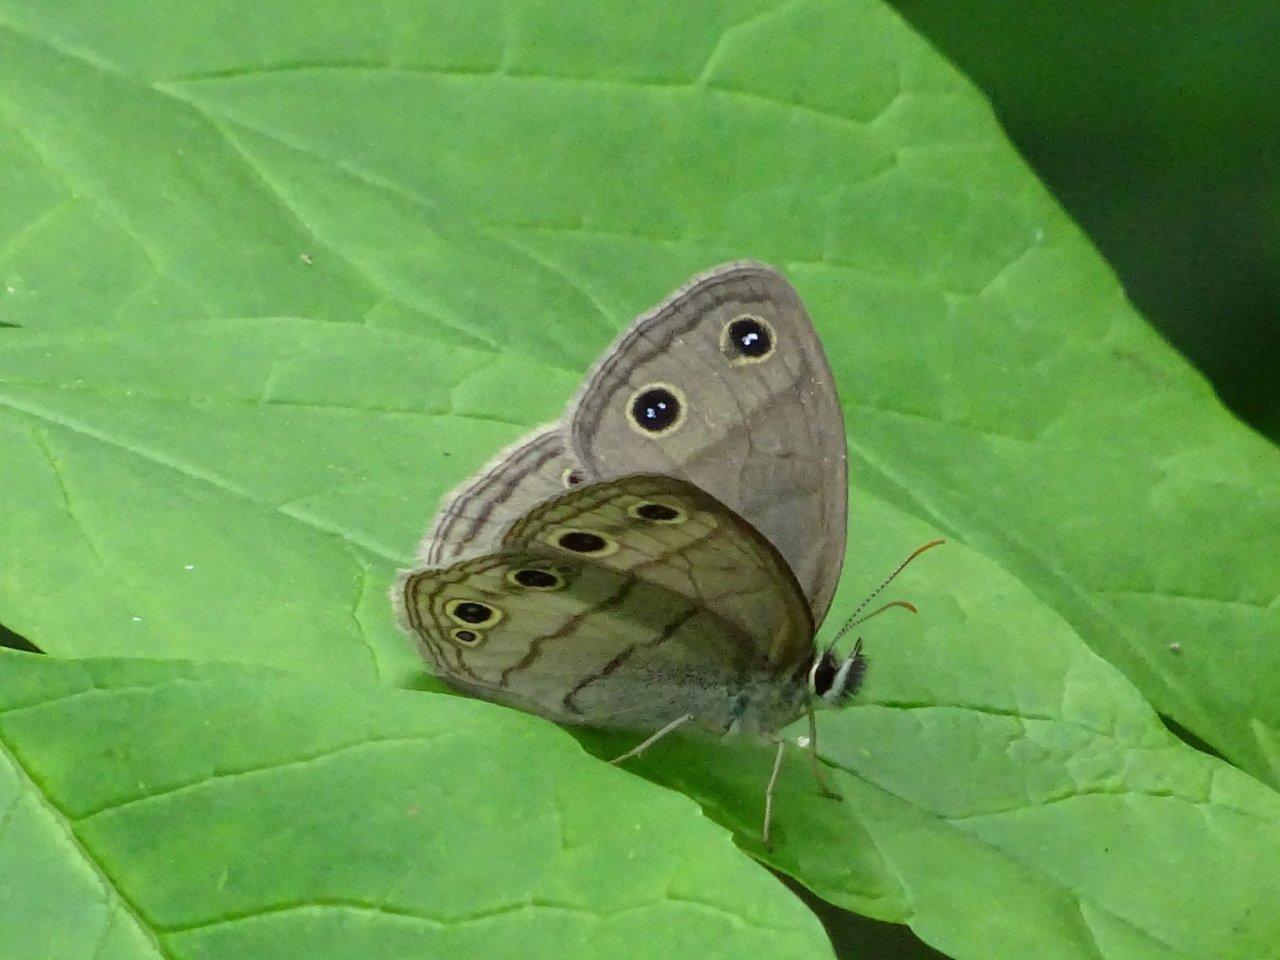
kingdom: Animalia
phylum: Arthropoda
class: Insecta
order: Lepidoptera
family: Nymphalidae
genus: Euptychia
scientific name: Euptychia cymela
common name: Little Wood Satyr
